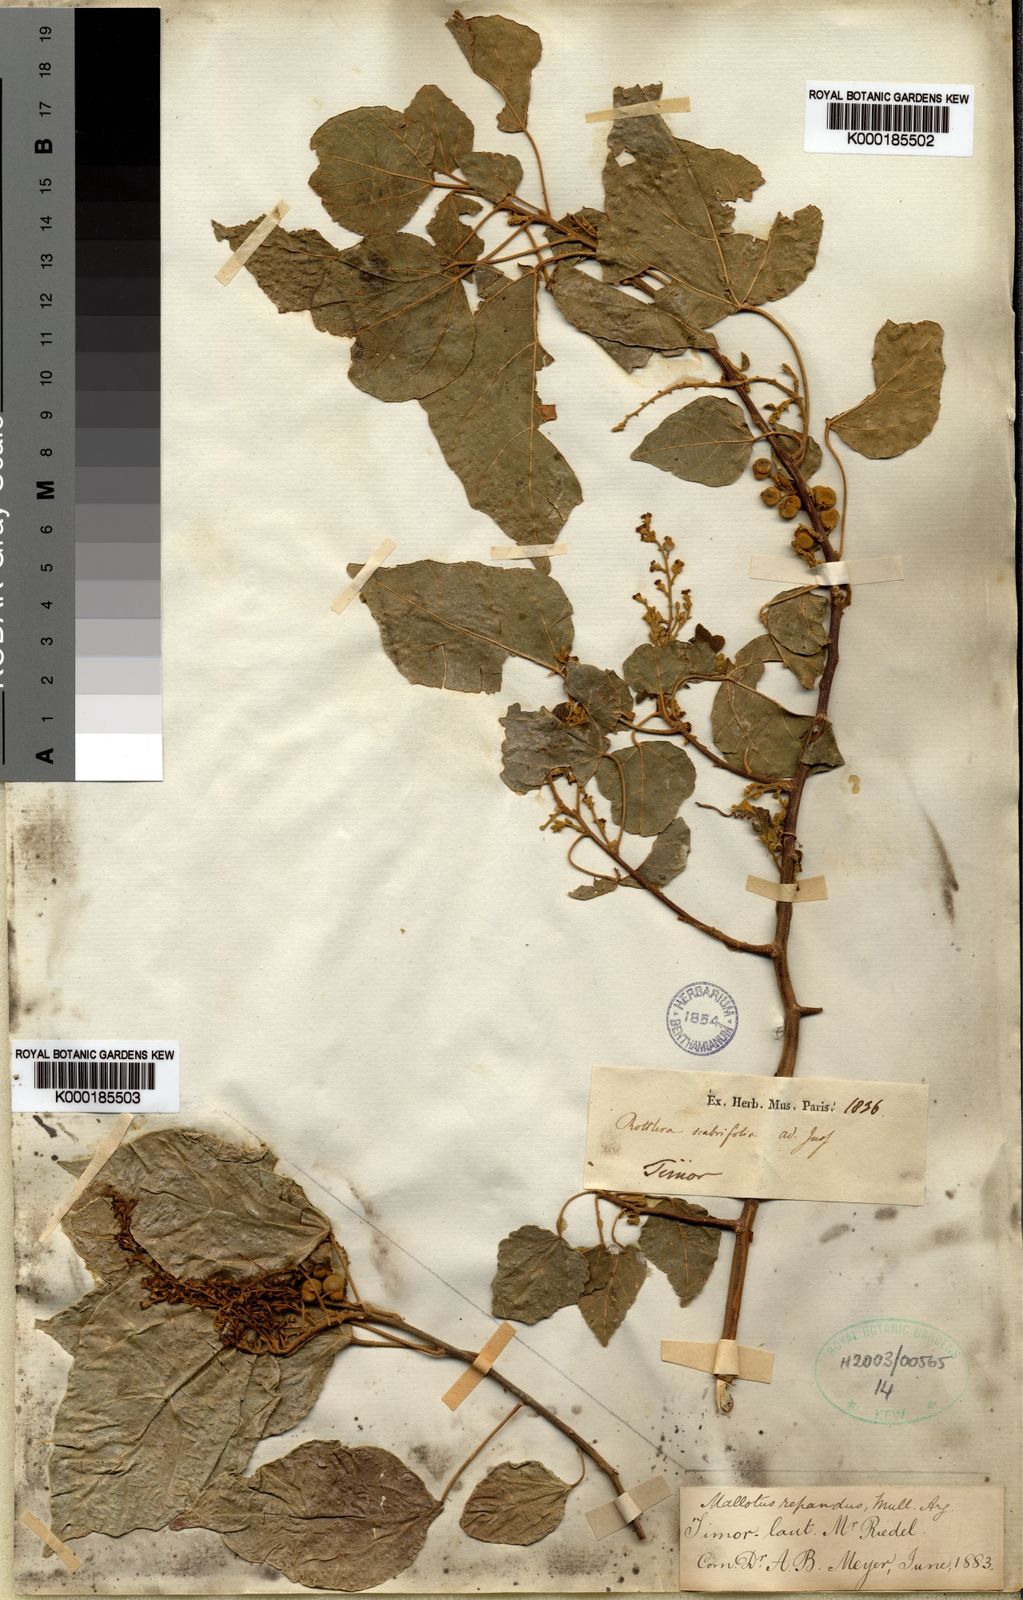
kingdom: Plantae
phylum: Tracheophyta
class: Magnoliopsida
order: Malpighiales
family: Euphorbiaceae
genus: Mallotus
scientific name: Mallotus
